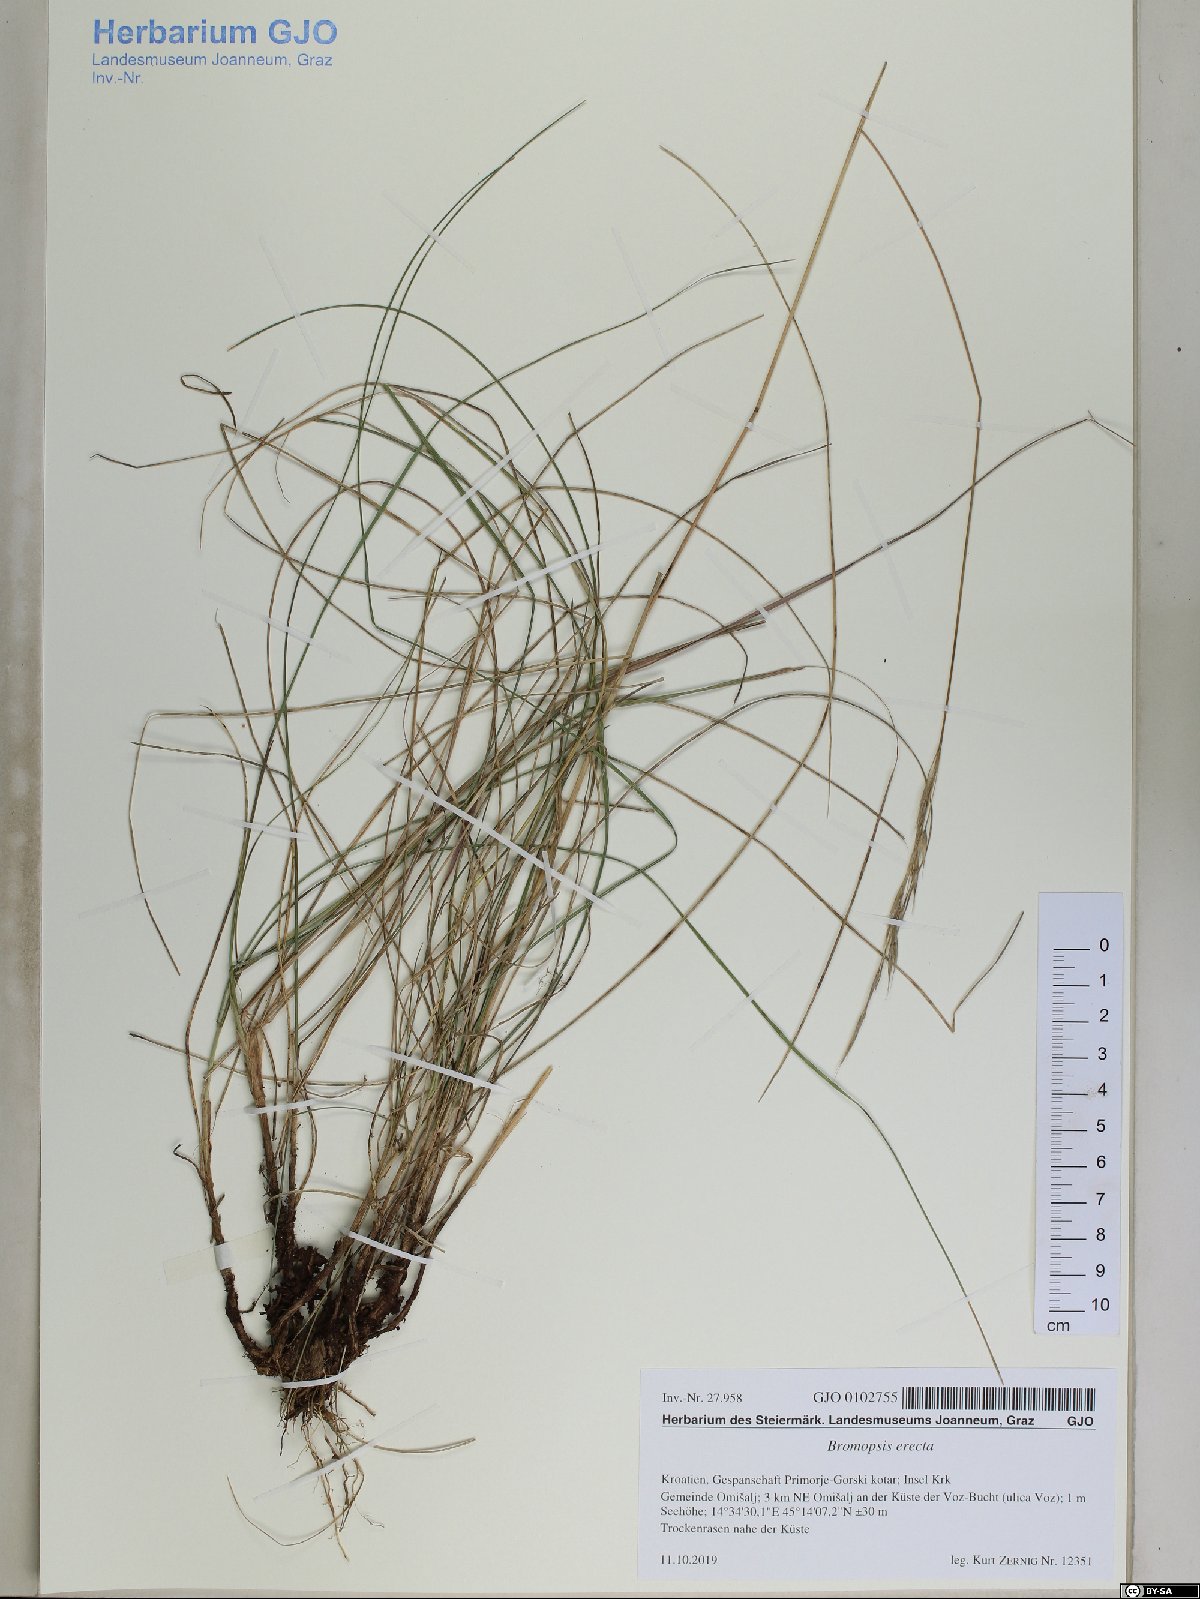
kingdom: Plantae
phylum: Tracheophyta
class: Liliopsida
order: Poales
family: Poaceae
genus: Bromus
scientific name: Bromus erectus
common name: Erect brome
